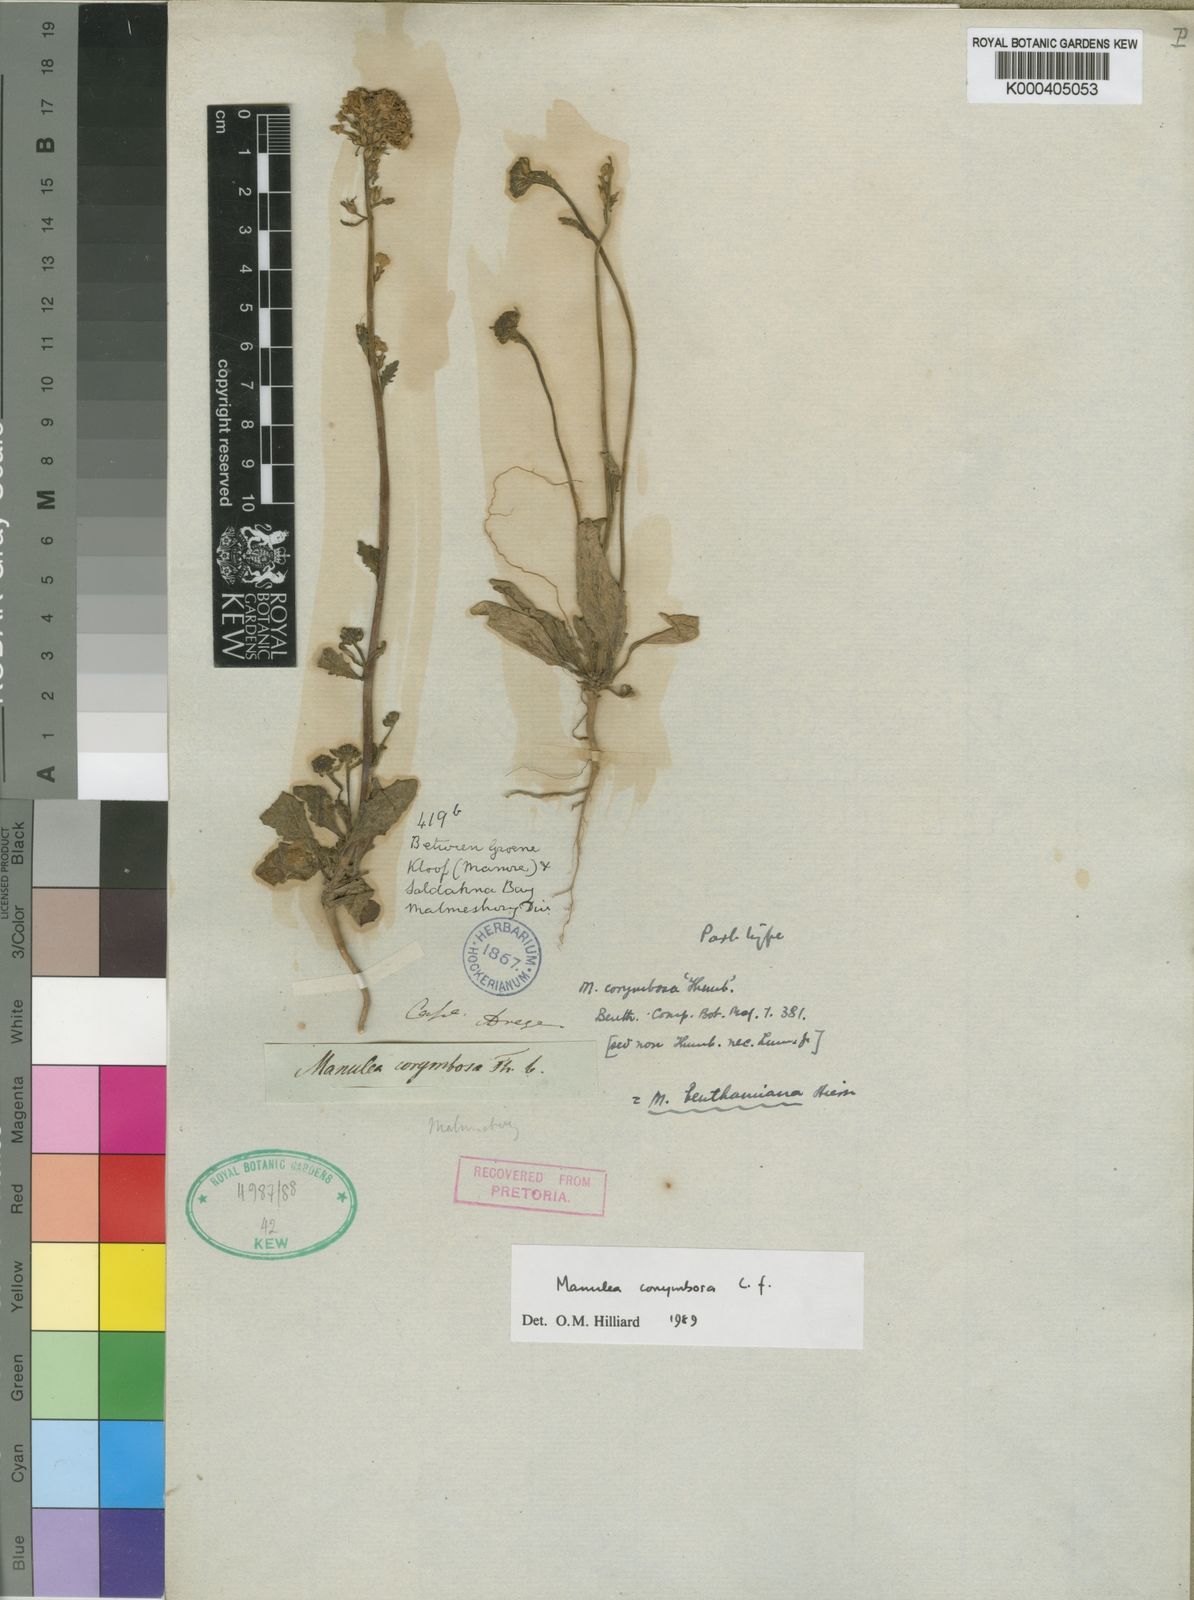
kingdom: Plantae
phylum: Tracheophyta
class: Magnoliopsida
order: Lamiales
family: Scrophulariaceae
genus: Manulea
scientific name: Manulea corymbosa
